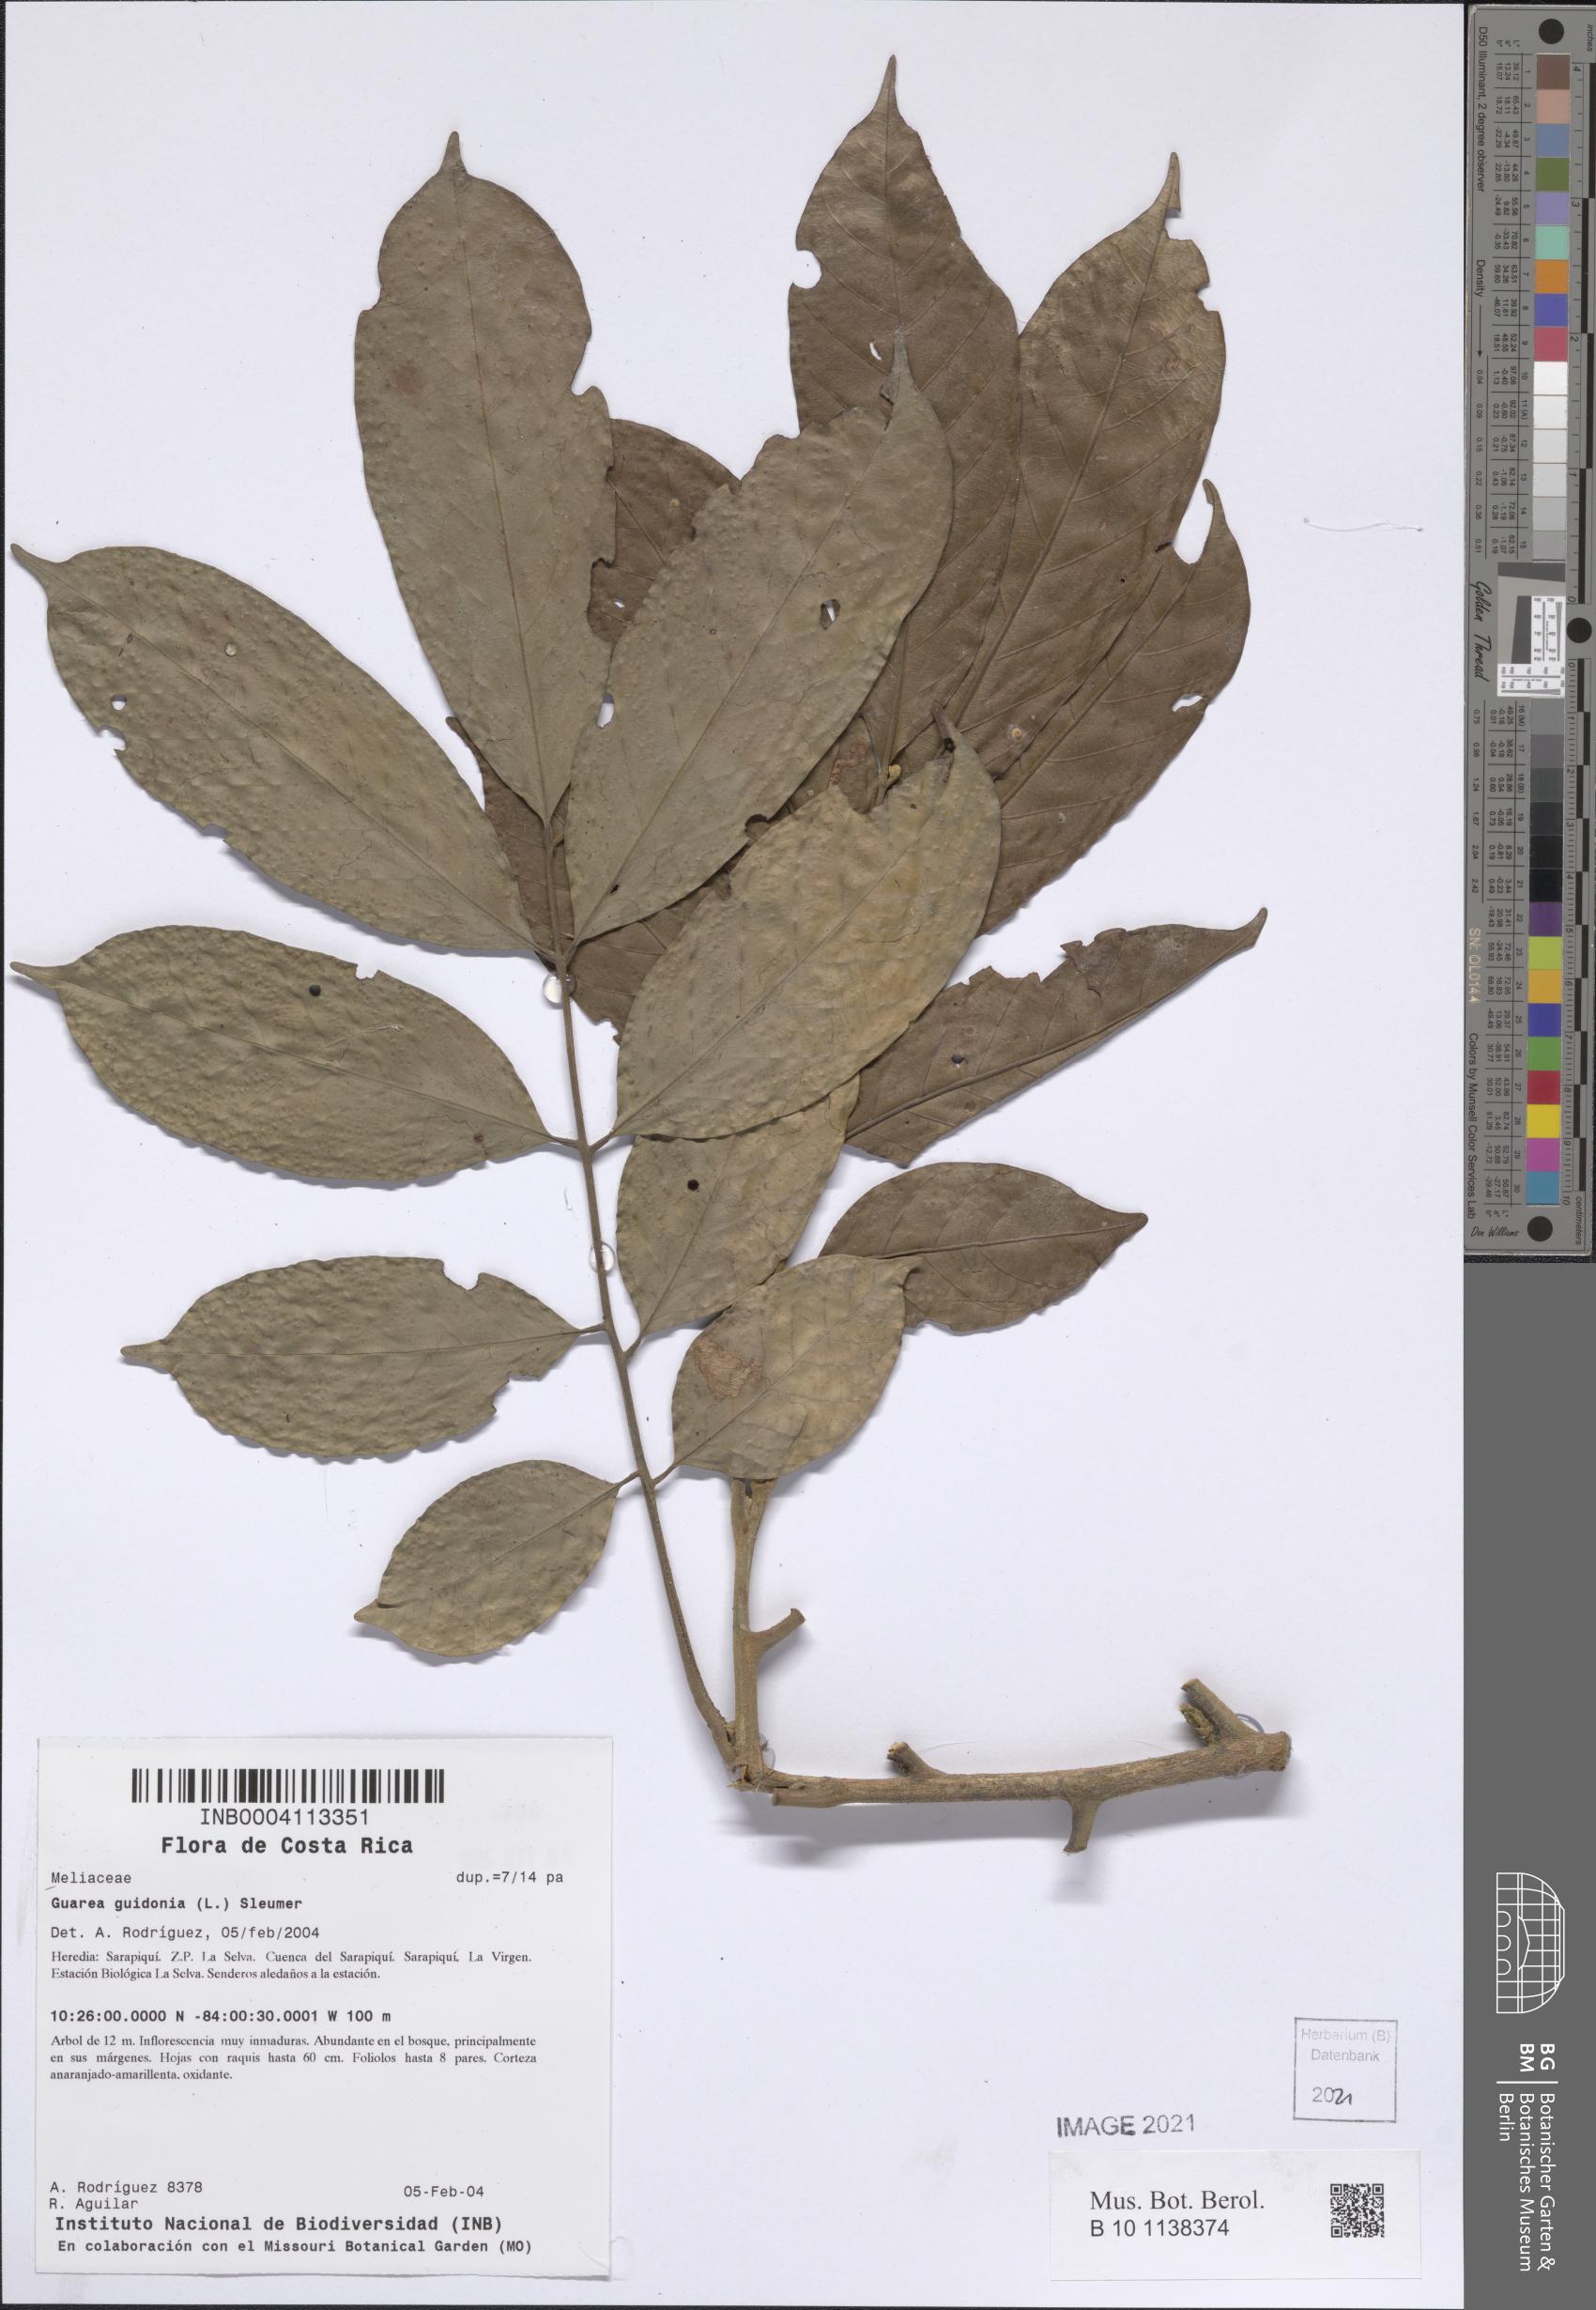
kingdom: Plantae
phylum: Tracheophyta
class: Magnoliopsida
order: Sapindales
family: Meliaceae
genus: Guarea
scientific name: Guarea guidonia
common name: American muskwood
